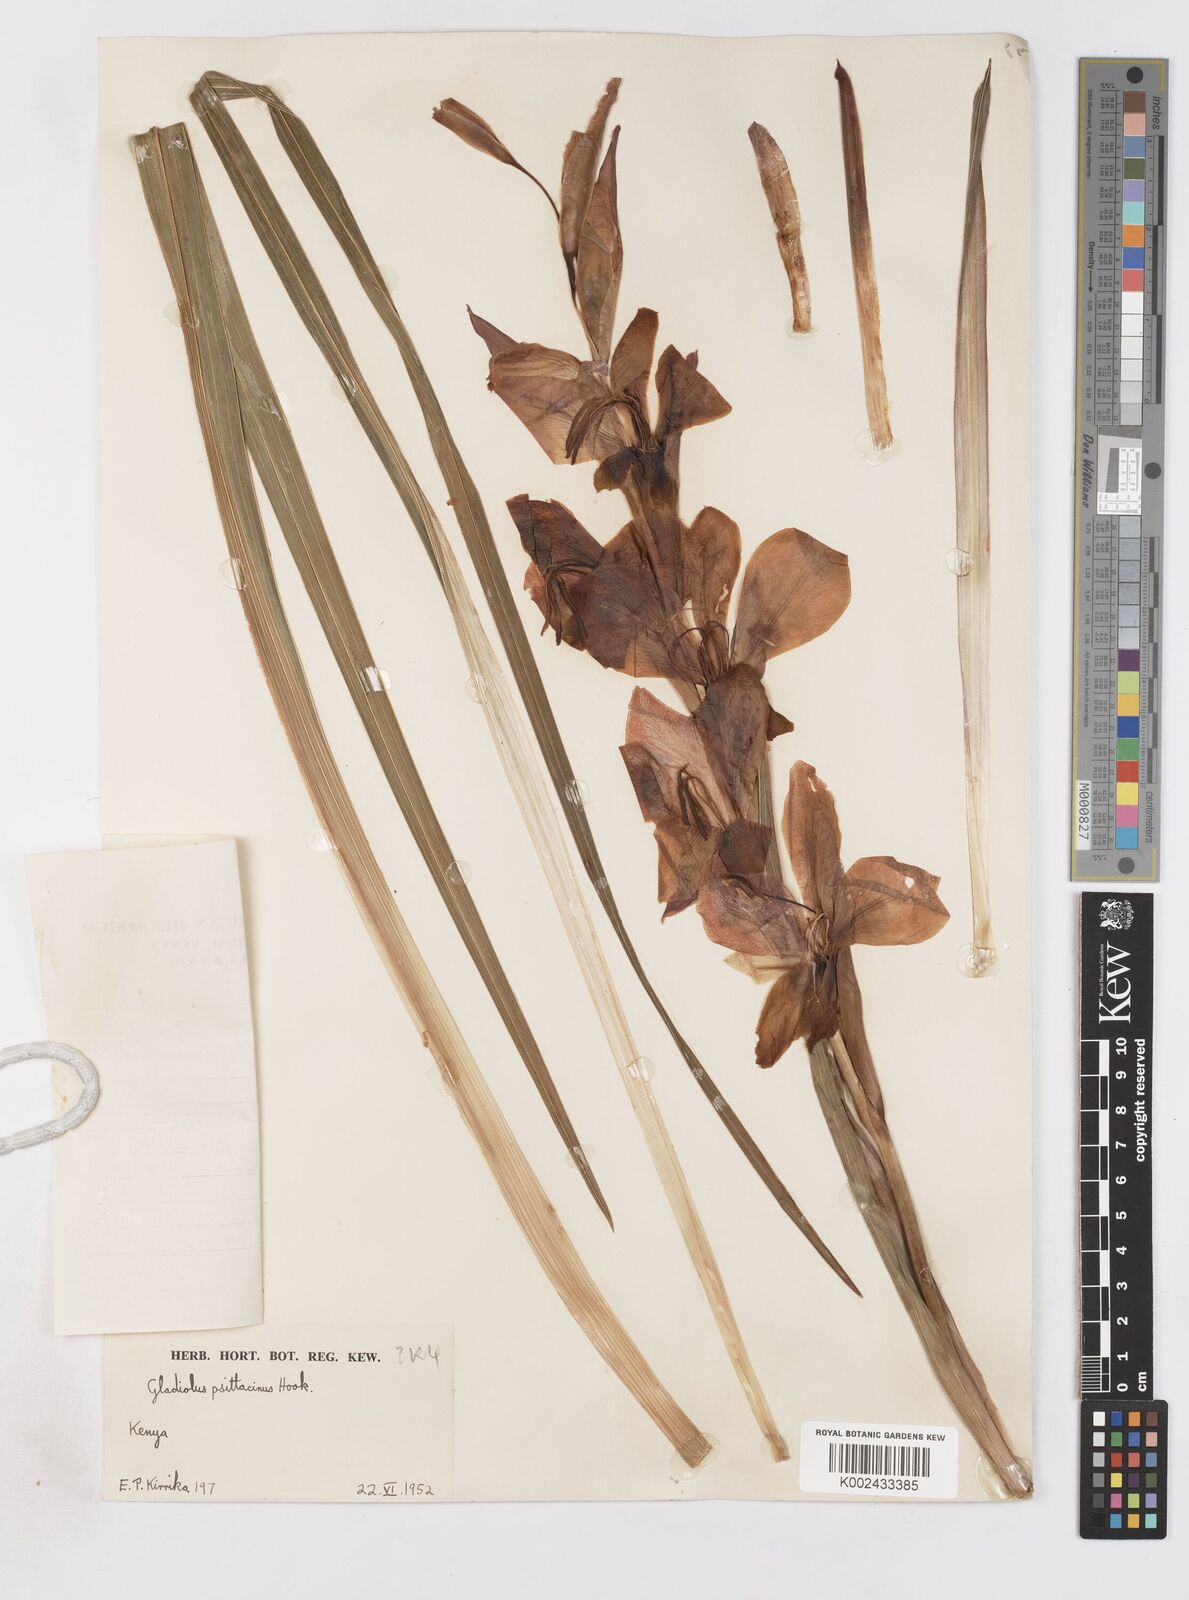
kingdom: Plantae
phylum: Tracheophyta
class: Liliopsida
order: Asparagales
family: Iridaceae
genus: Gladiolus
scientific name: Gladiolus dalenii
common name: Cornflag
